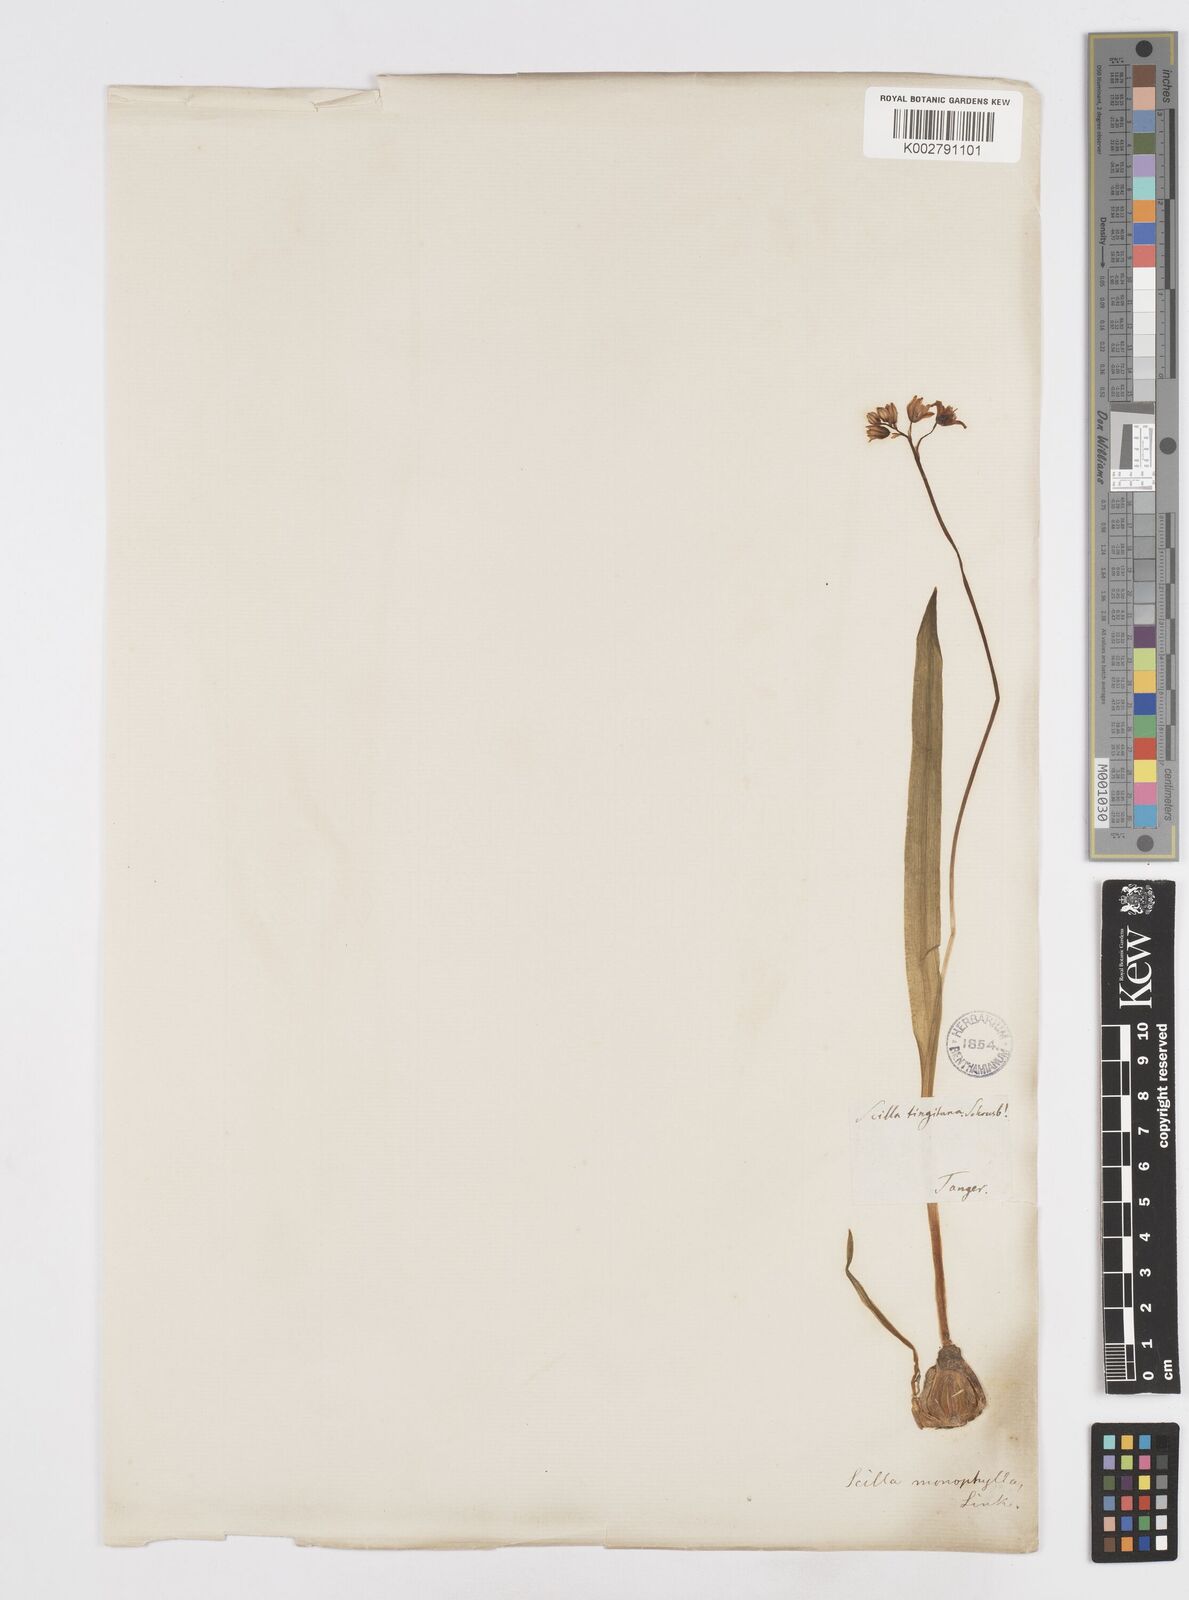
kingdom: Plantae
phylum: Tracheophyta
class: Liliopsida
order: Asparagales
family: Asparagaceae
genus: Scilla
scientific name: Scilla monophyllos
